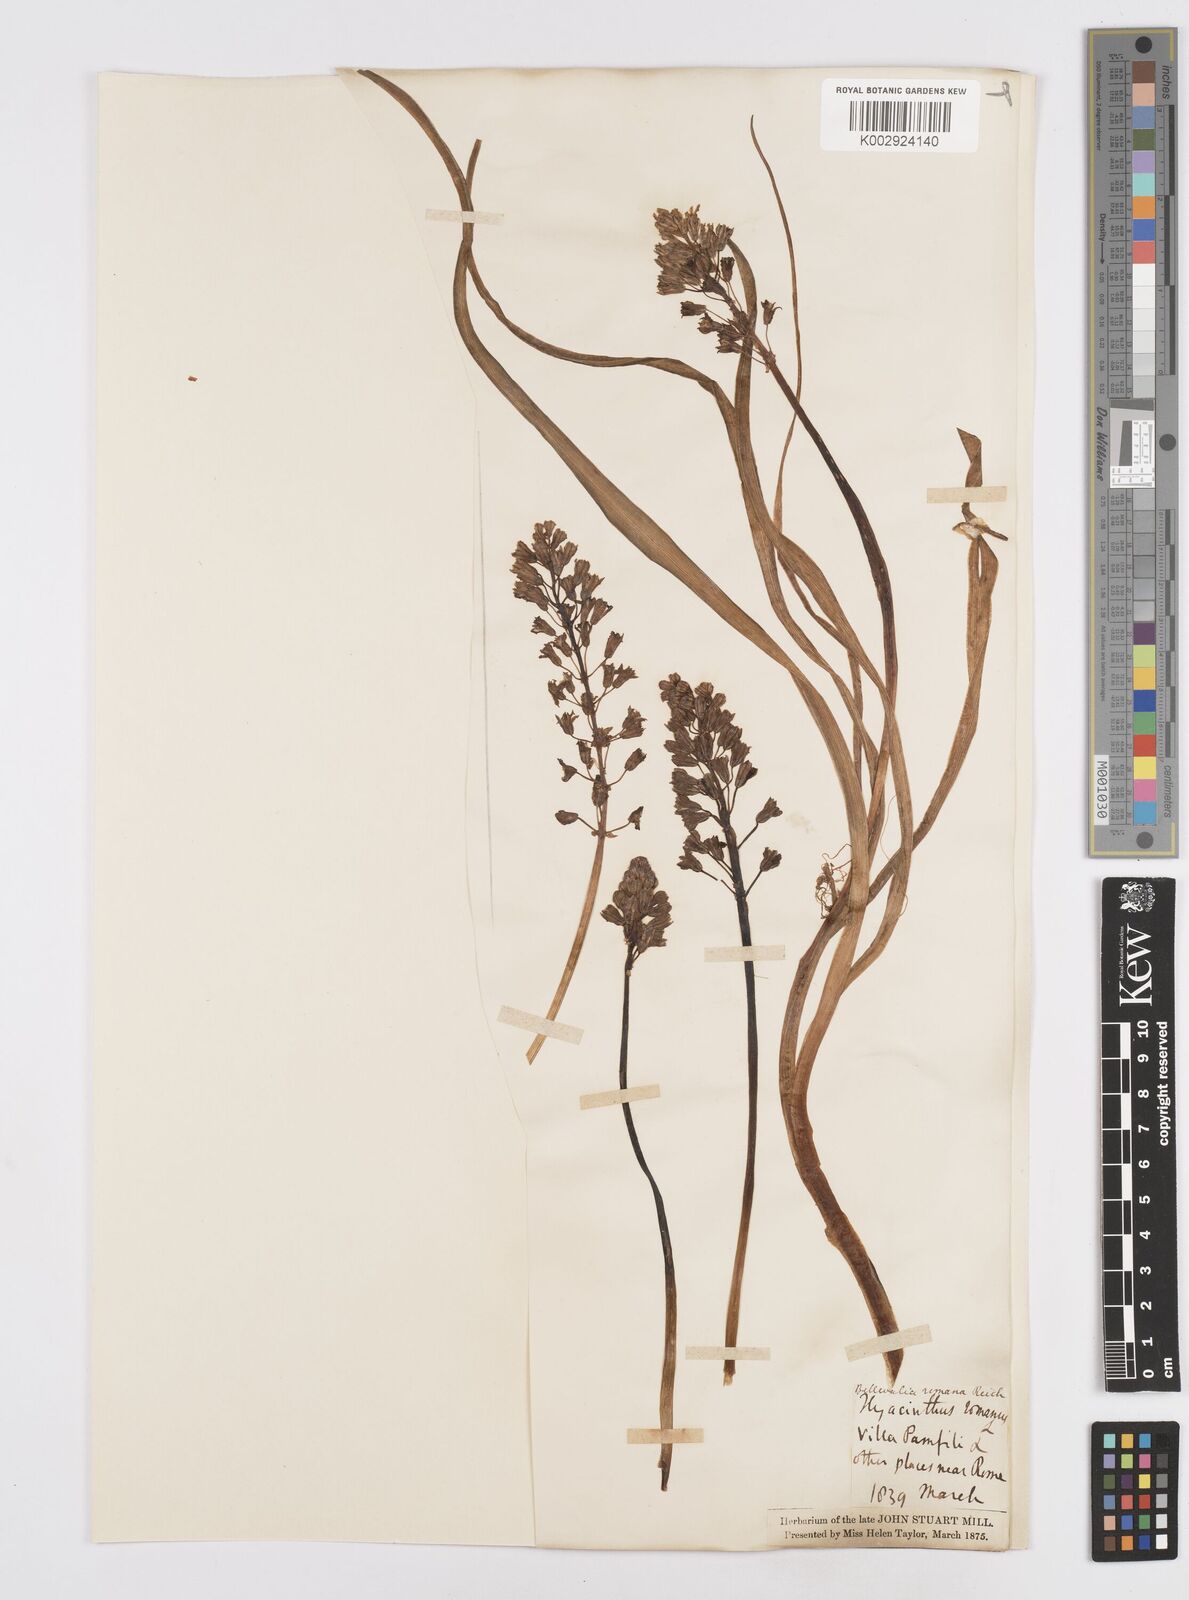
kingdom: Plantae
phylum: Tracheophyta
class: Liliopsida
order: Asparagales
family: Asparagaceae
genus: Bellevalia
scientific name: Bellevalia
